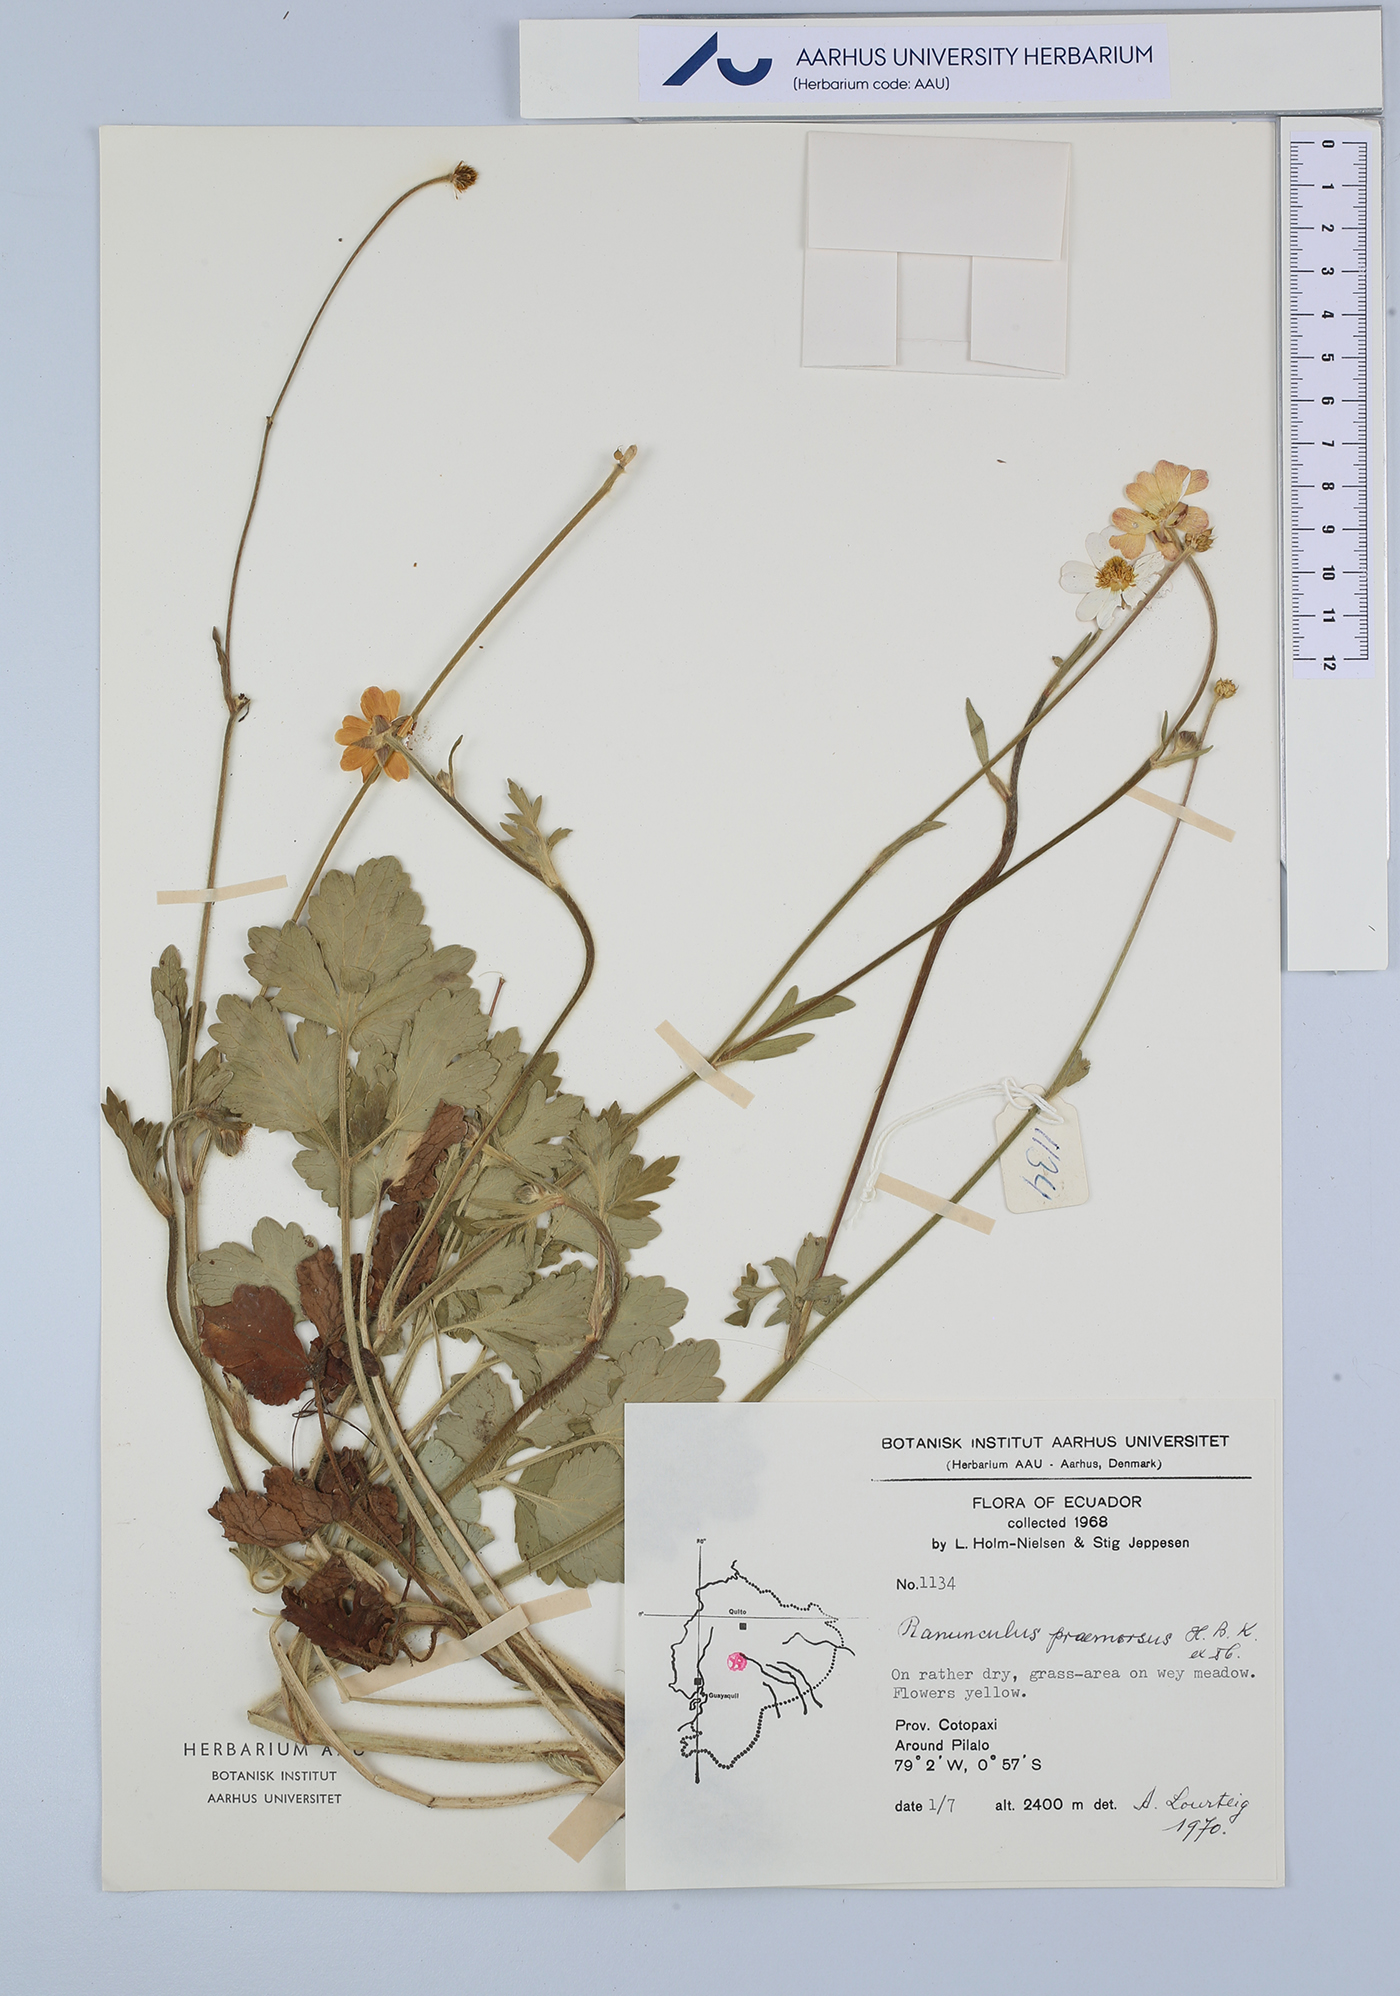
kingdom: Plantae
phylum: Tracheophyta
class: Magnoliopsida
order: Ranunculales
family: Ranunculaceae
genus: Ranunculus
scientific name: Ranunculus praemorsus
